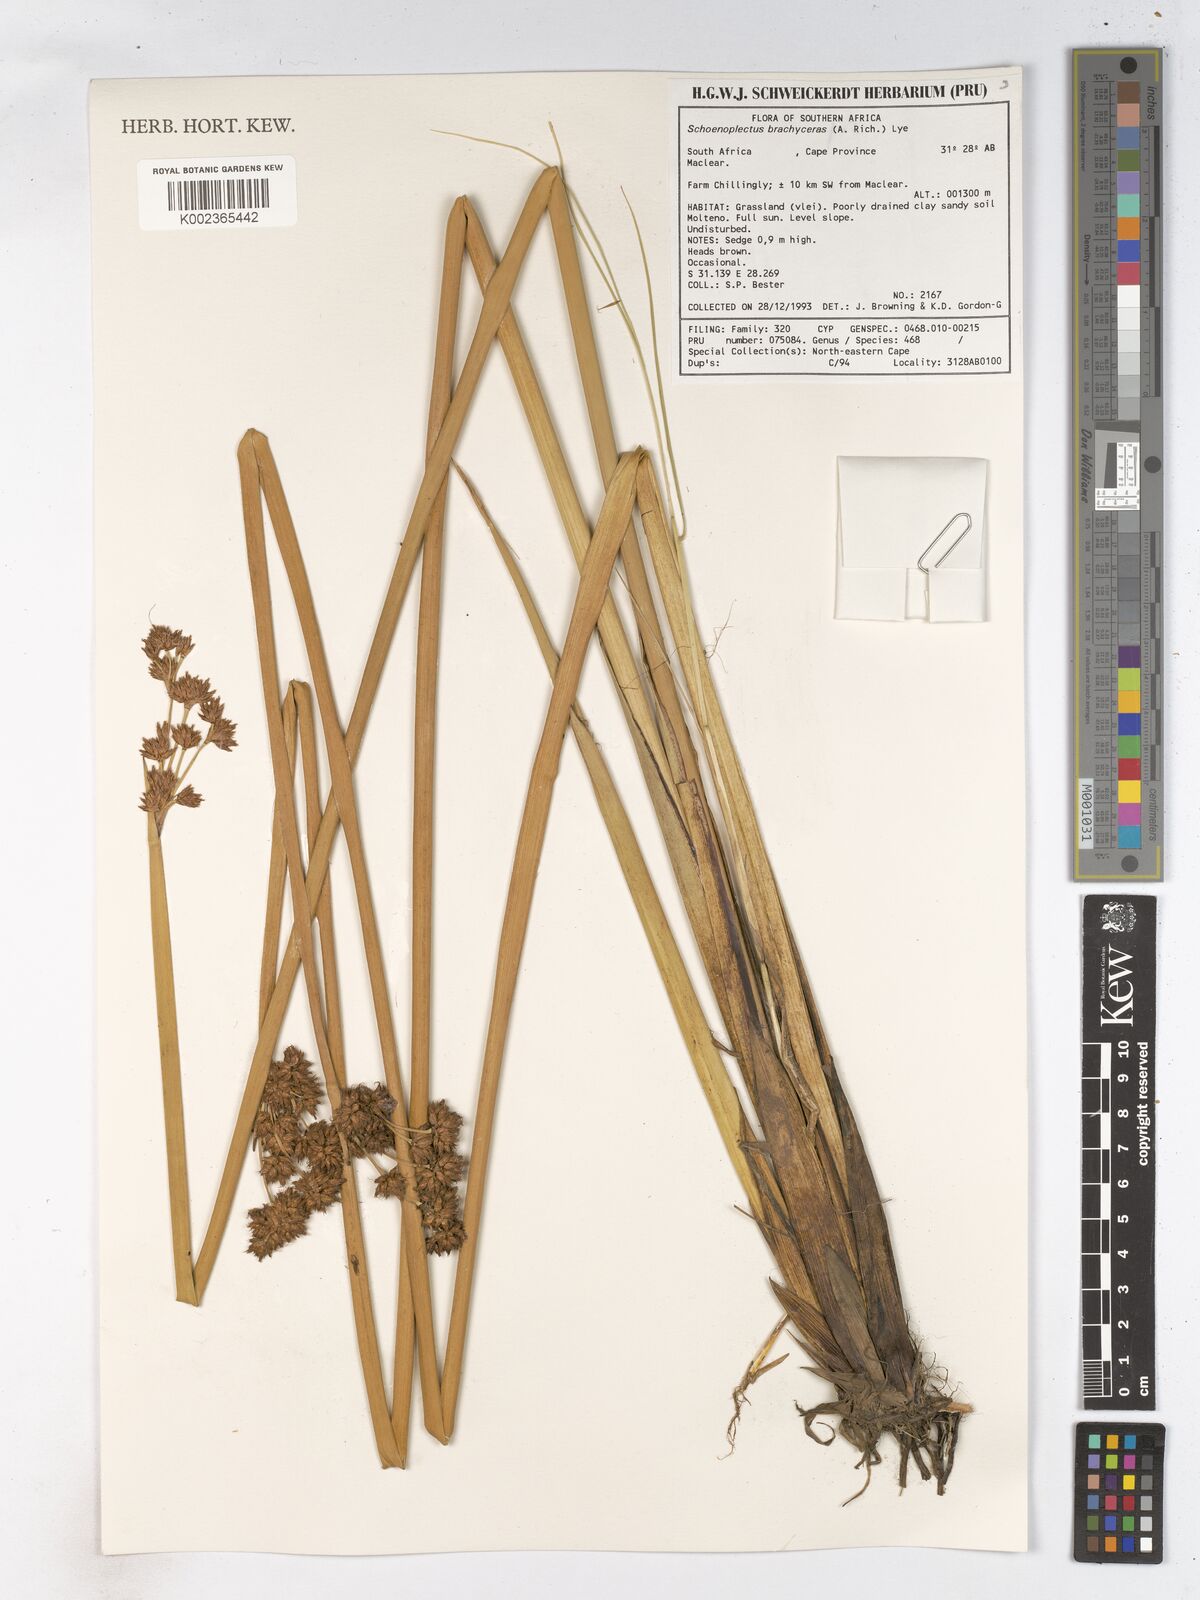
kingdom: Plantae
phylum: Tracheophyta
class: Liliopsida
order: Poales
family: Cyperaceae
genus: Schoenoplectiella
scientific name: Schoenoplectiella brachyceras
